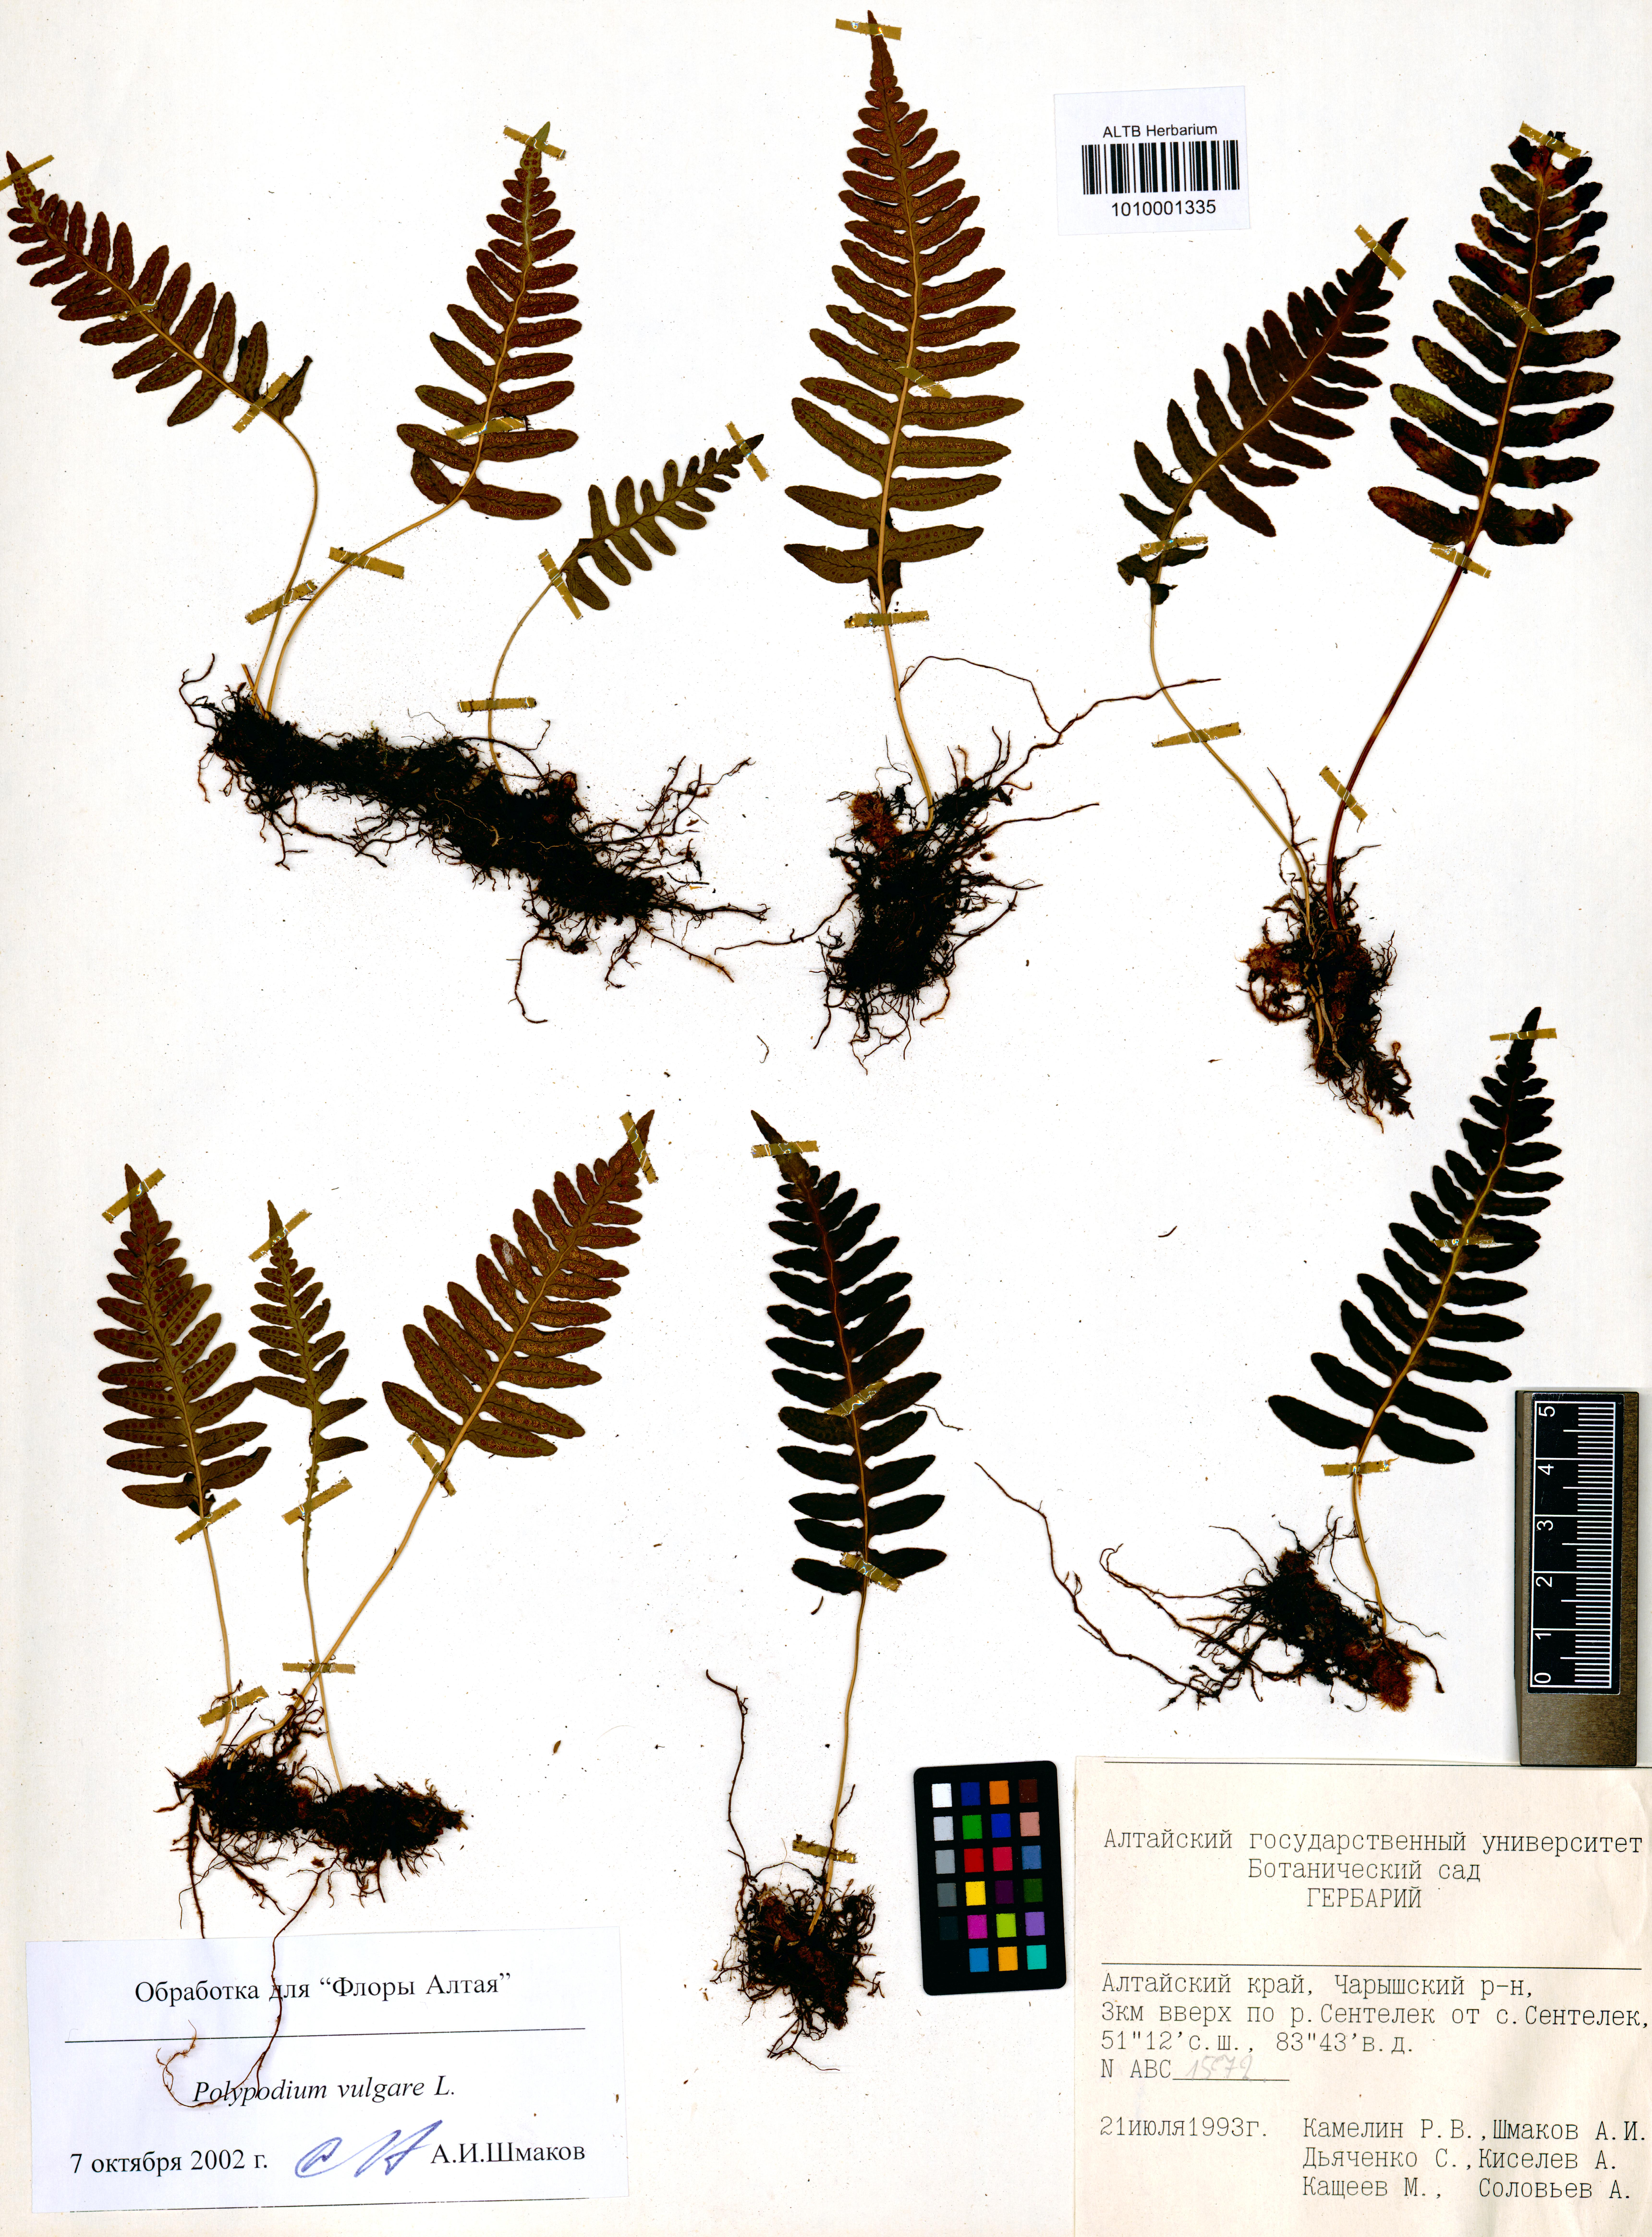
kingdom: Plantae
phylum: Tracheophyta
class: Polypodiopsida
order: Polypodiales
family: Polypodiaceae
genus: Polypodium
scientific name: Polypodium vulgare
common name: Common polypody
